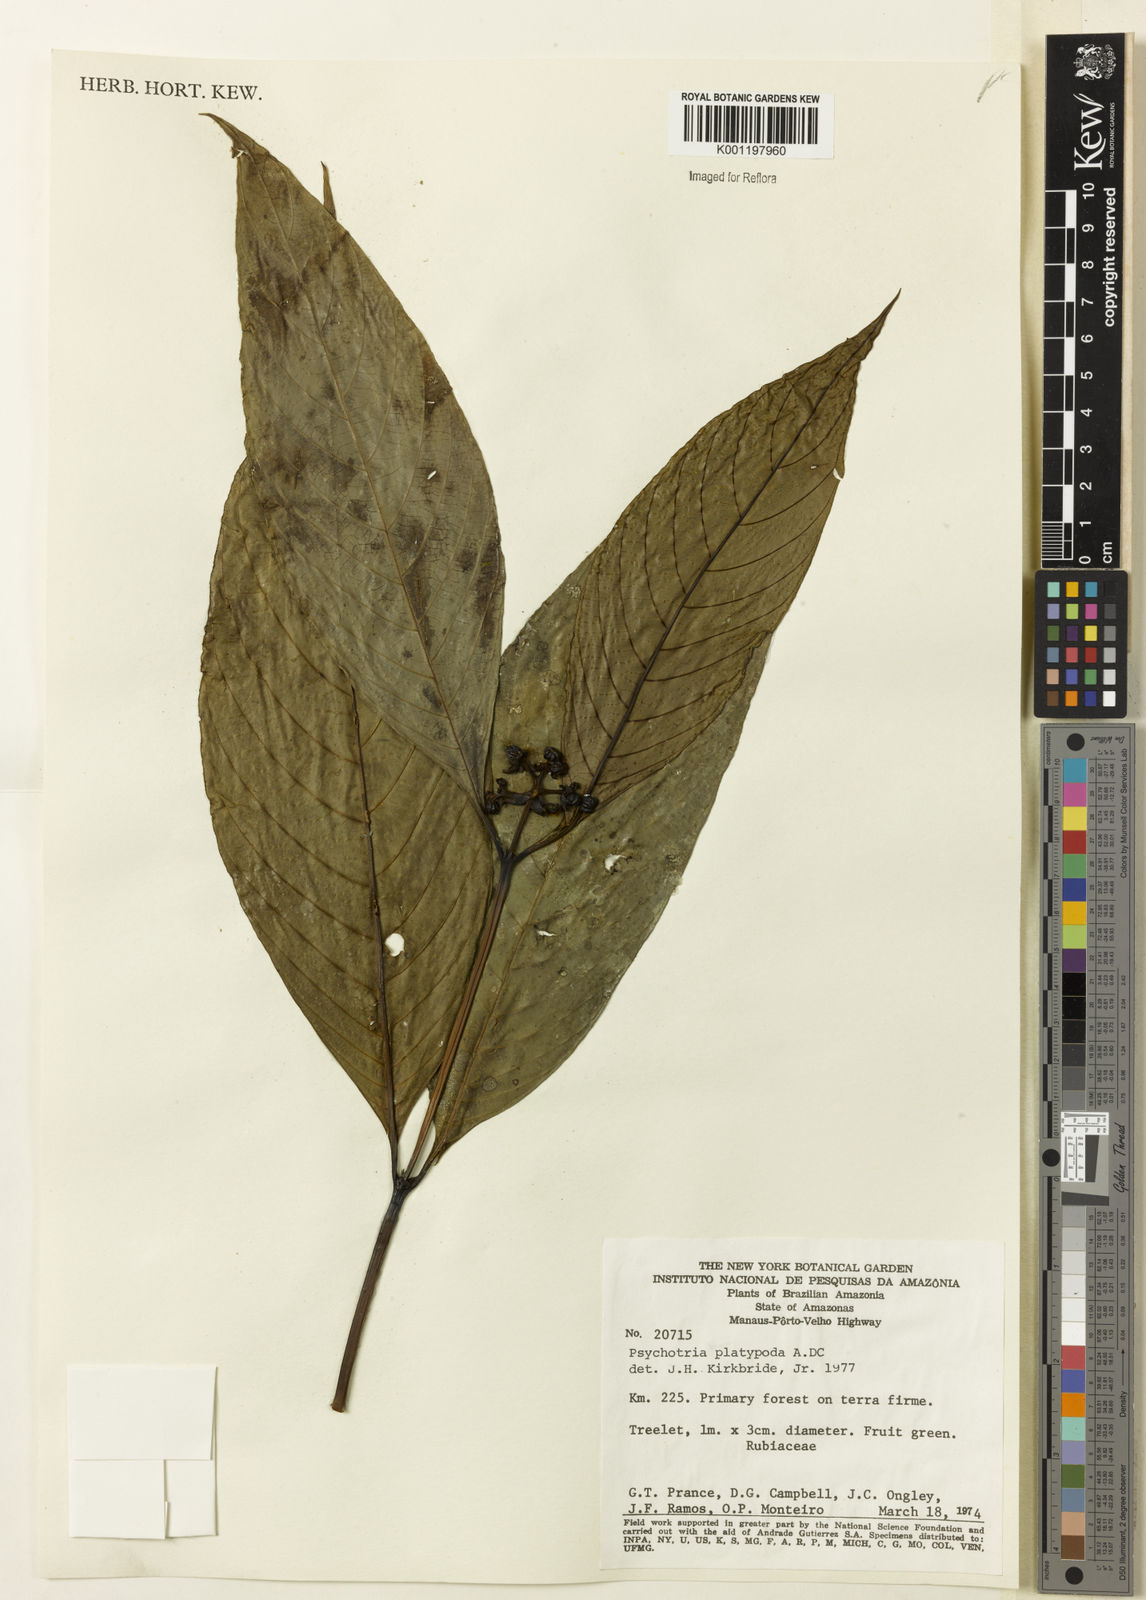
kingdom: Plantae
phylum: Tracheophyta
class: Magnoliopsida
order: Gentianales
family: Rubiaceae
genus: Palicourea
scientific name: Palicourea dichotoma
